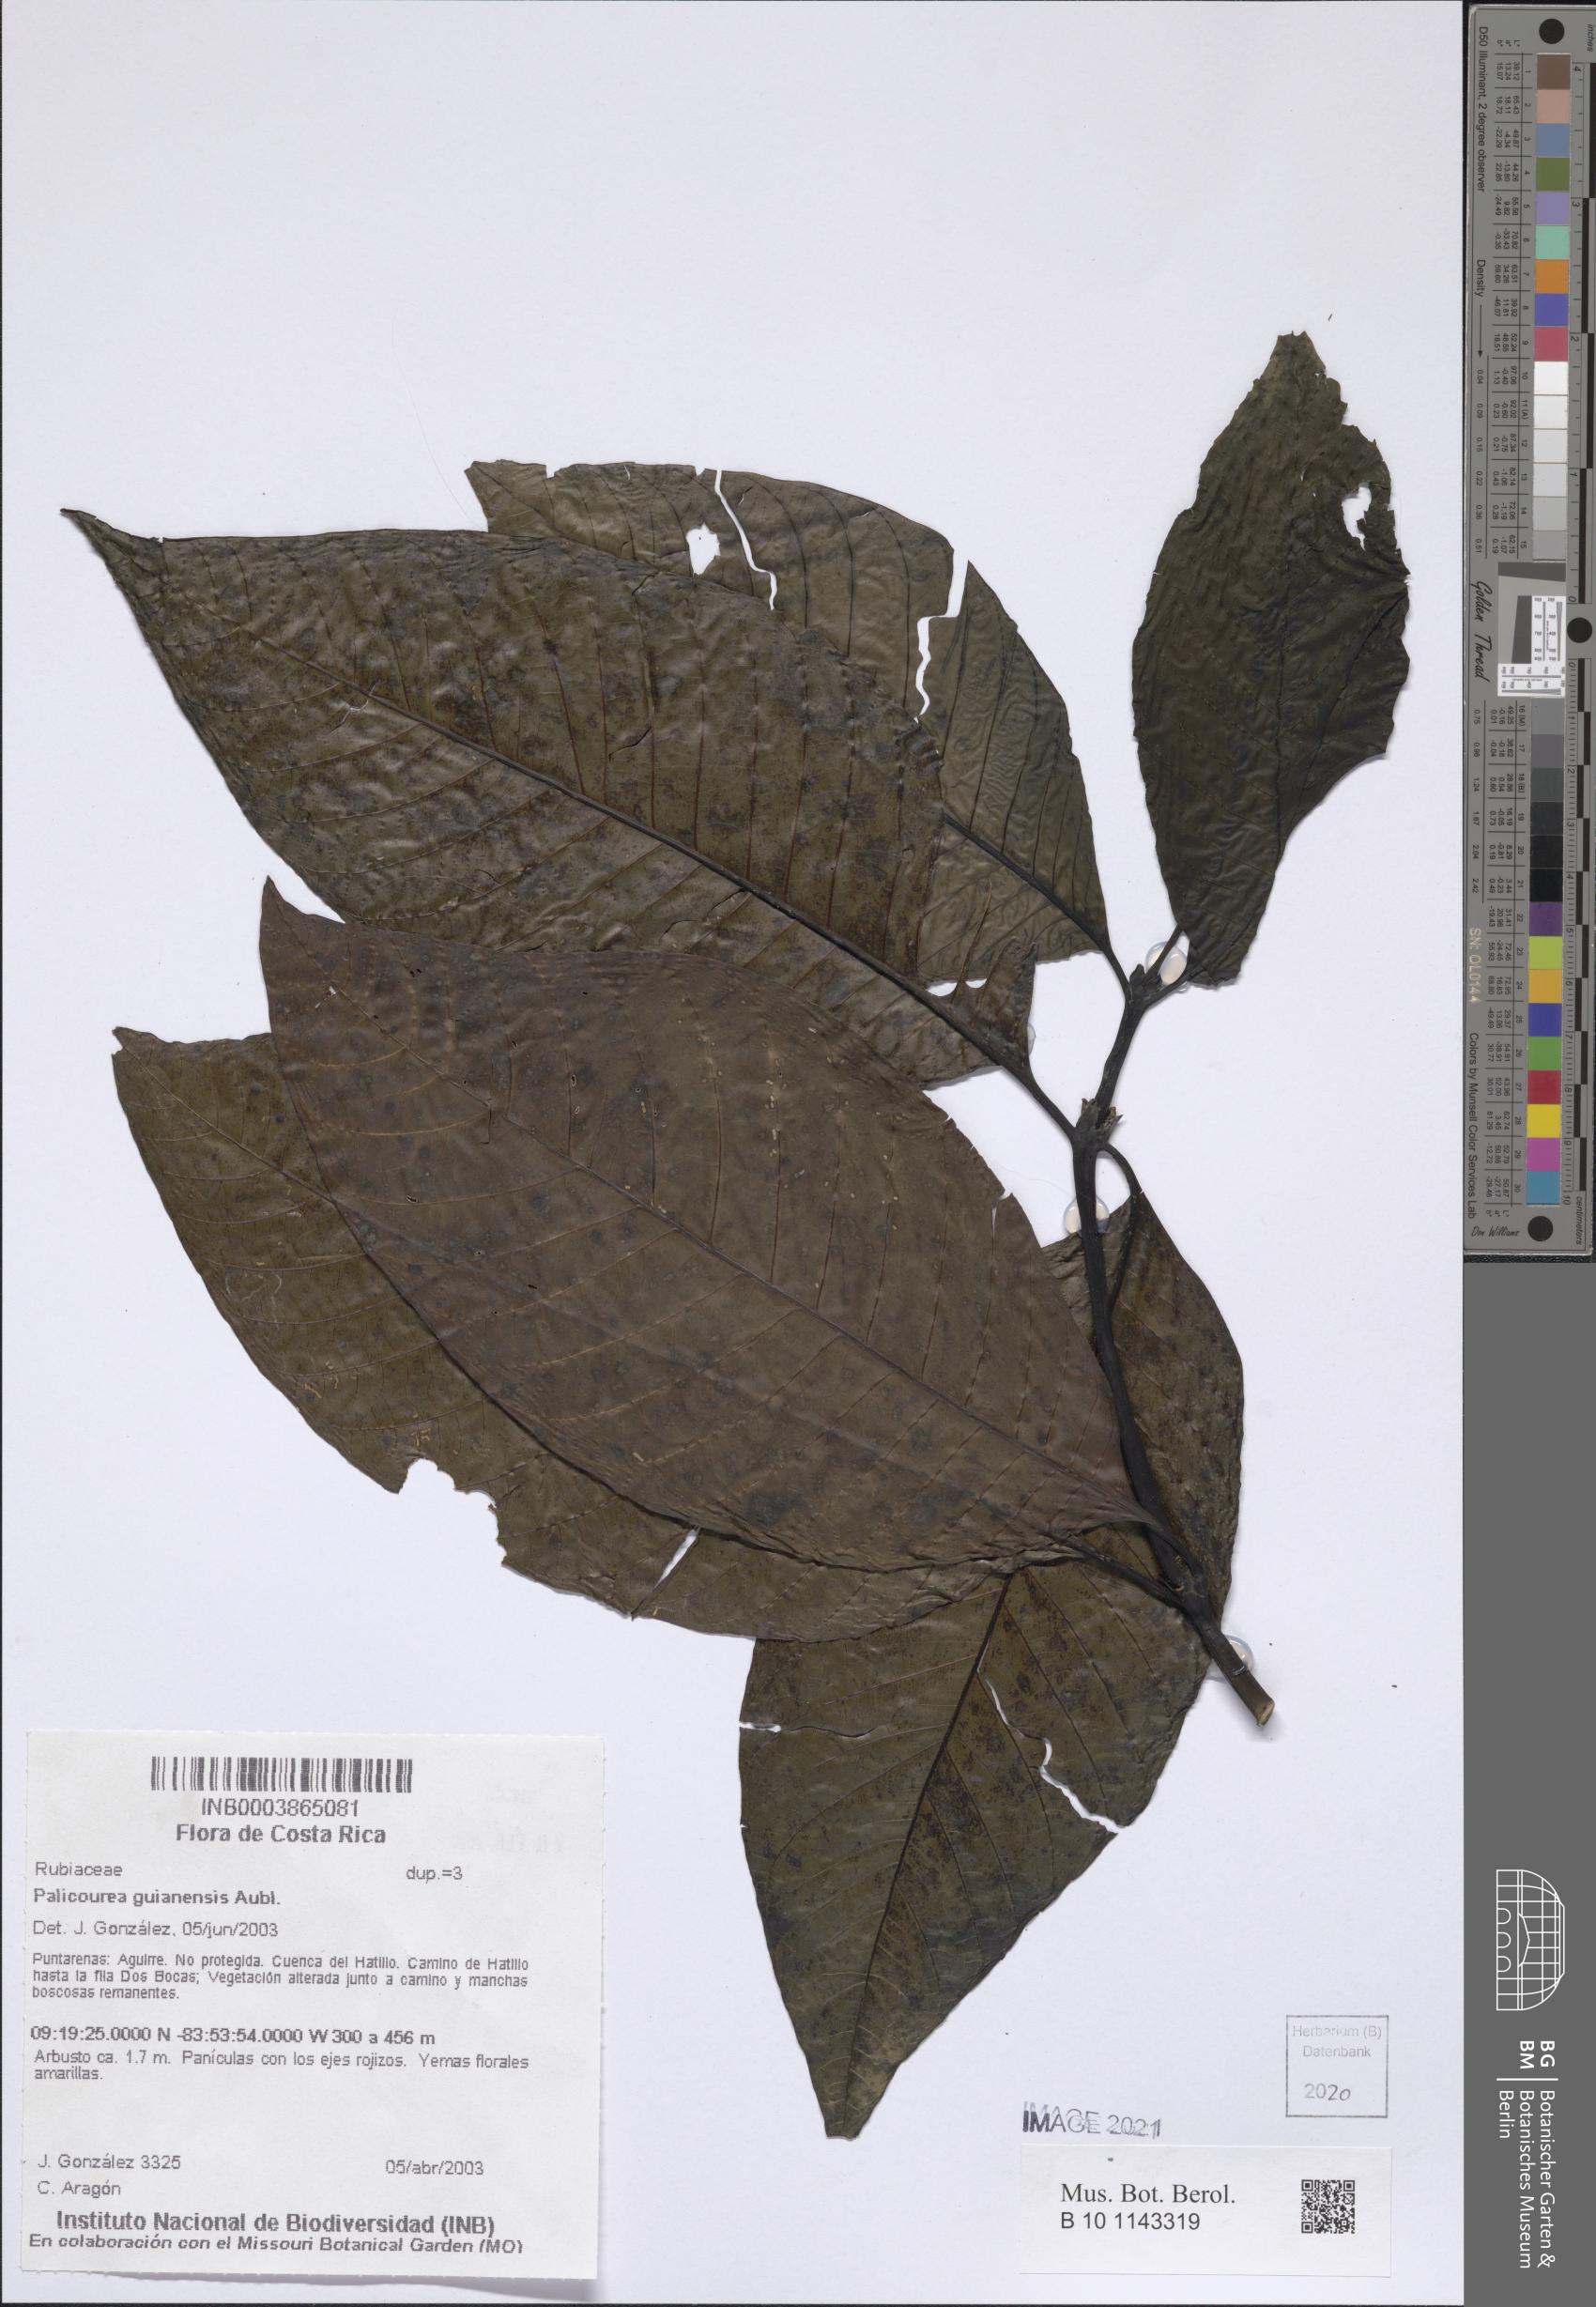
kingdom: Plantae
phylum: Tracheophyta
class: Magnoliopsida
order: Gentianales
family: Rubiaceae
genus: Palicourea
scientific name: Palicourea guianensis
